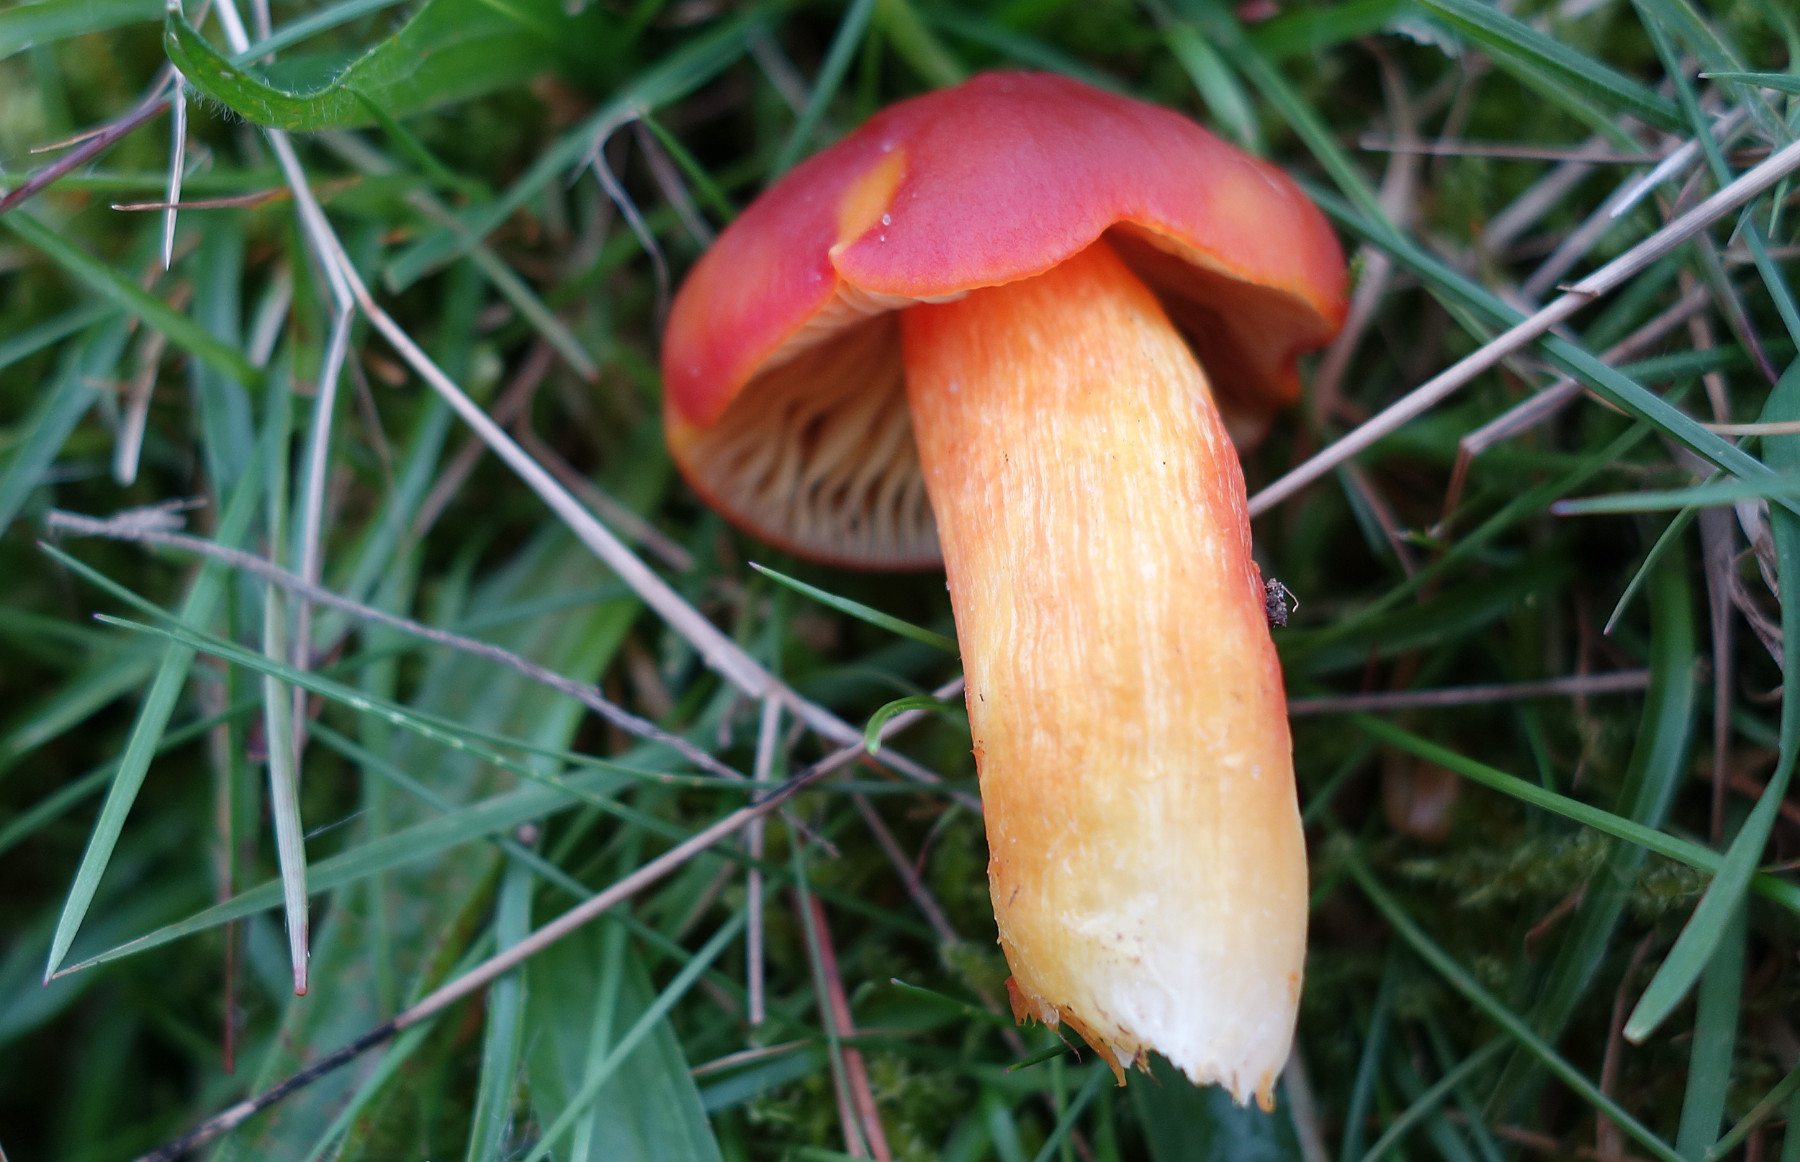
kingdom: Fungi
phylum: Basidiomycota
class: Agaricomycetes
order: Agaricales
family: Hygrophoraceae
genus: Hygrocybe
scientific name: Hygrocybe punicea
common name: skarlagen-vokshat
